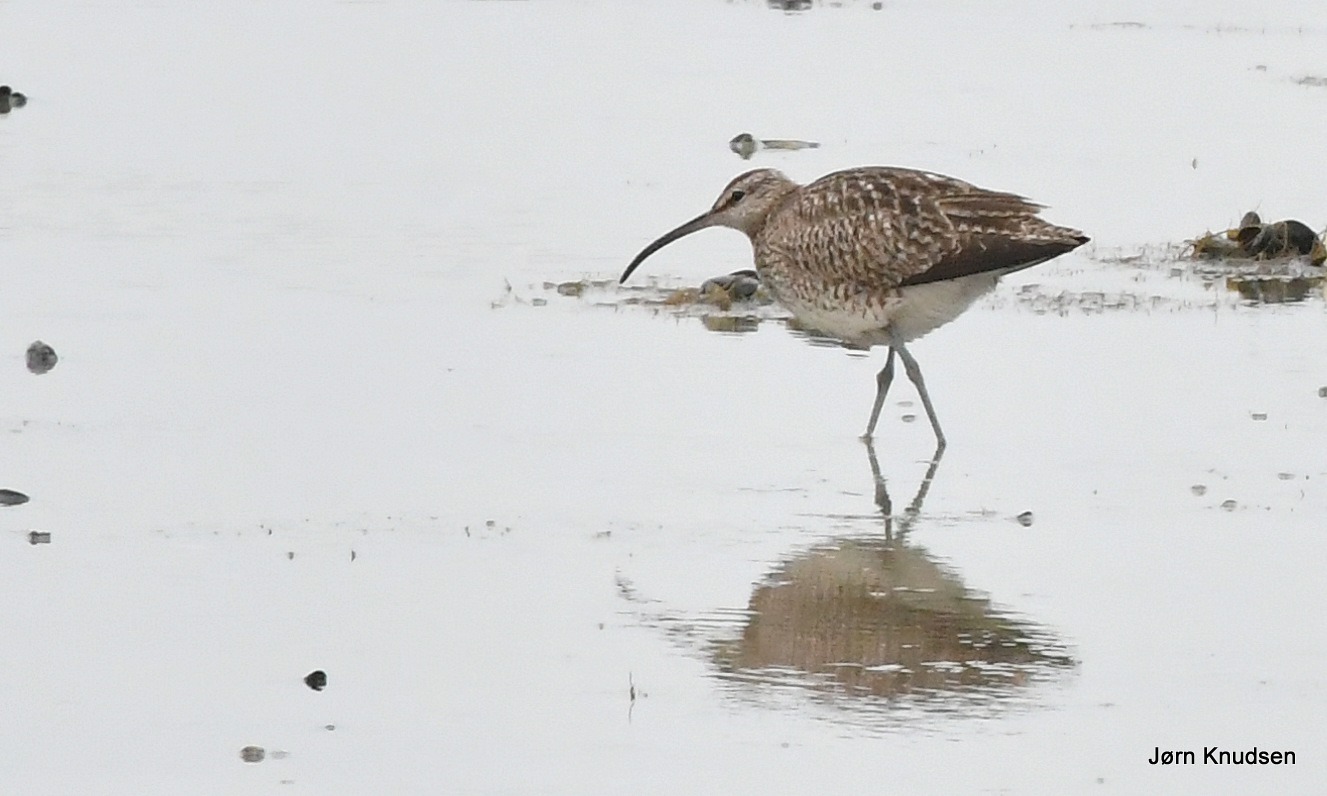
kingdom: Animalia
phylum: Chordata
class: Aves
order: Charadriiformes
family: Scolopacidae
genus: Numenius
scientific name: Numenius phaeopus
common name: Småspove
